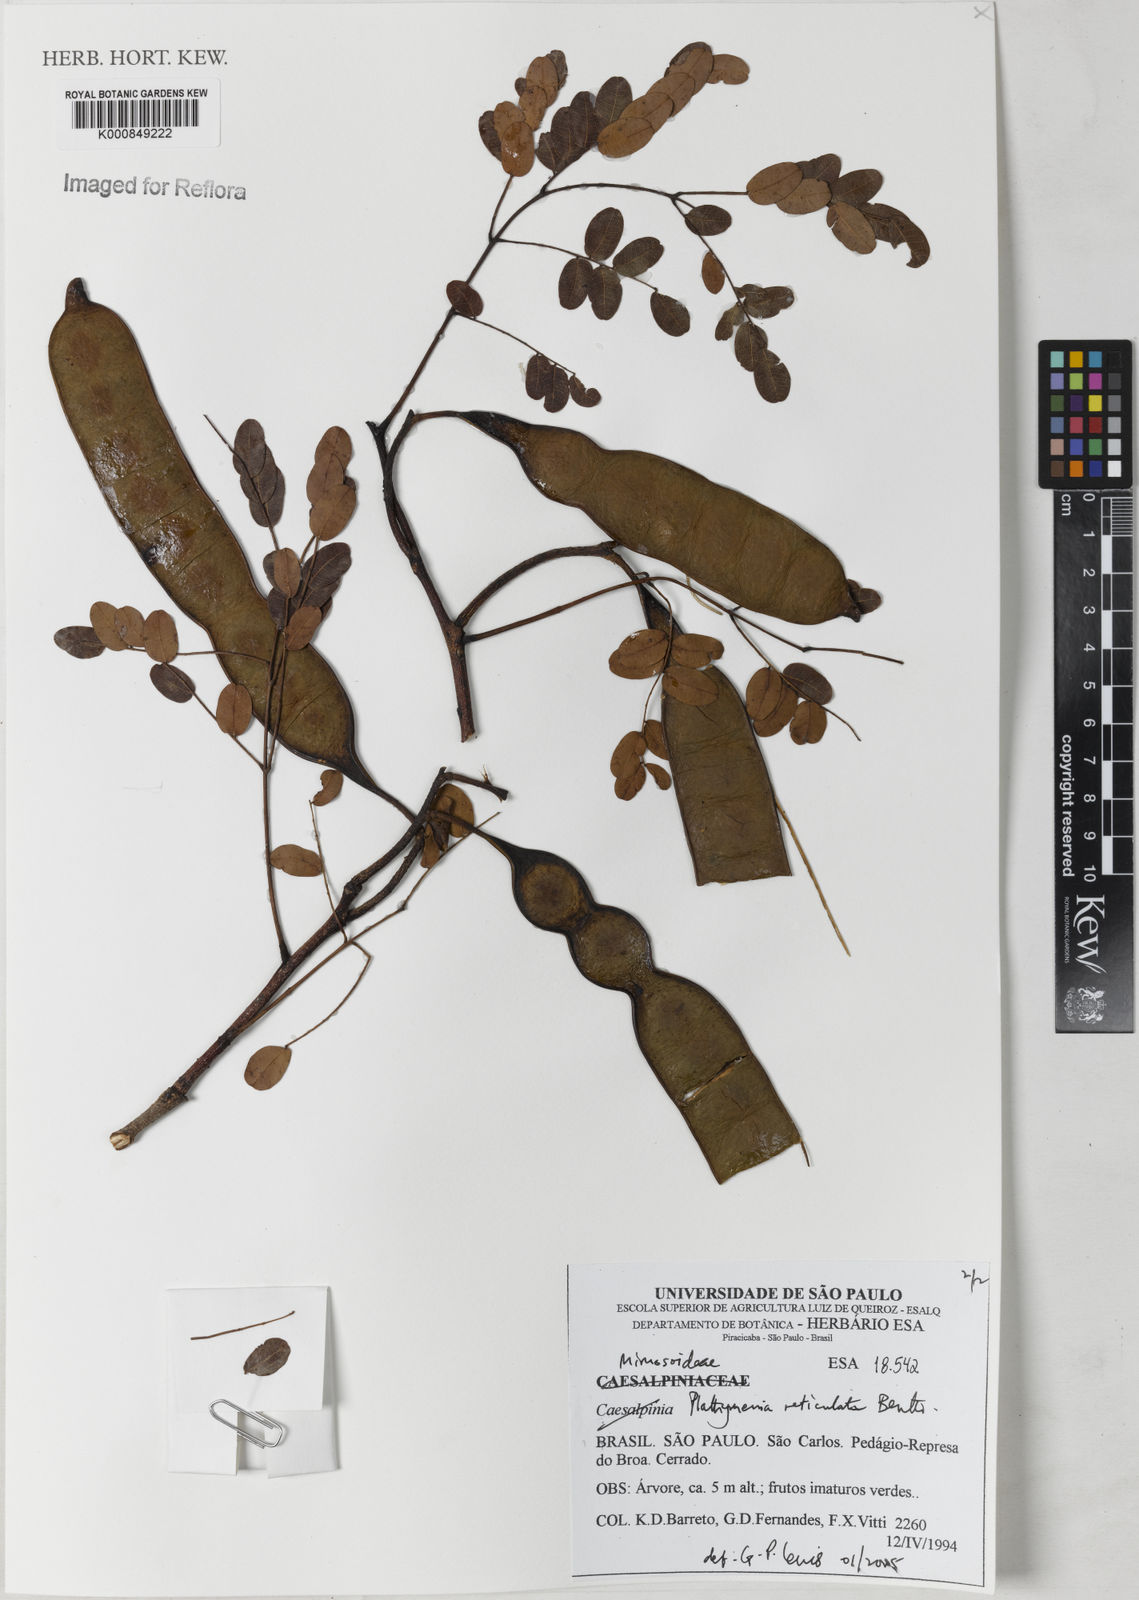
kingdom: Plantae
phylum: Tracheophyta
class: Magnoliopsida
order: Fabales
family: Fabaceae
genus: Plathymenia
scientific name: Plathymenia reticulata
